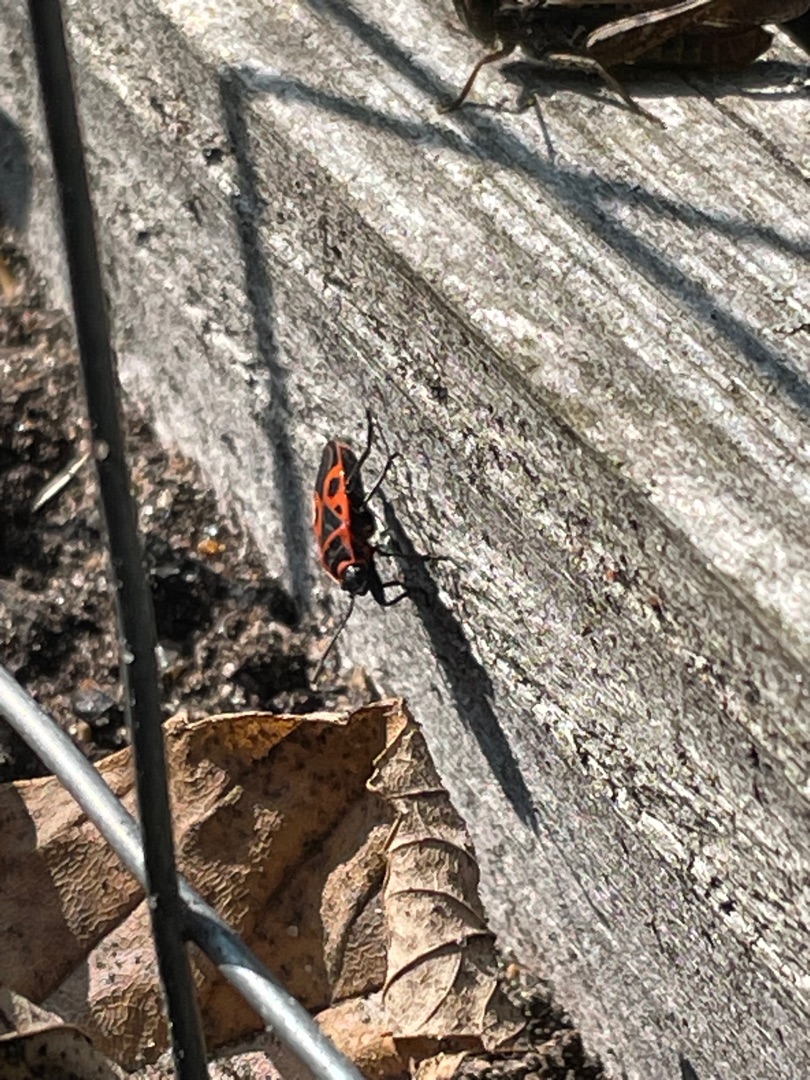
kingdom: Animalia
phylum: Arthropoda
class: Insecta
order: Hemiptera
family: Pyrrhocoridae
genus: Pyrrhocoris
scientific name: Pyrrhocoris apterus
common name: Ildtæge
